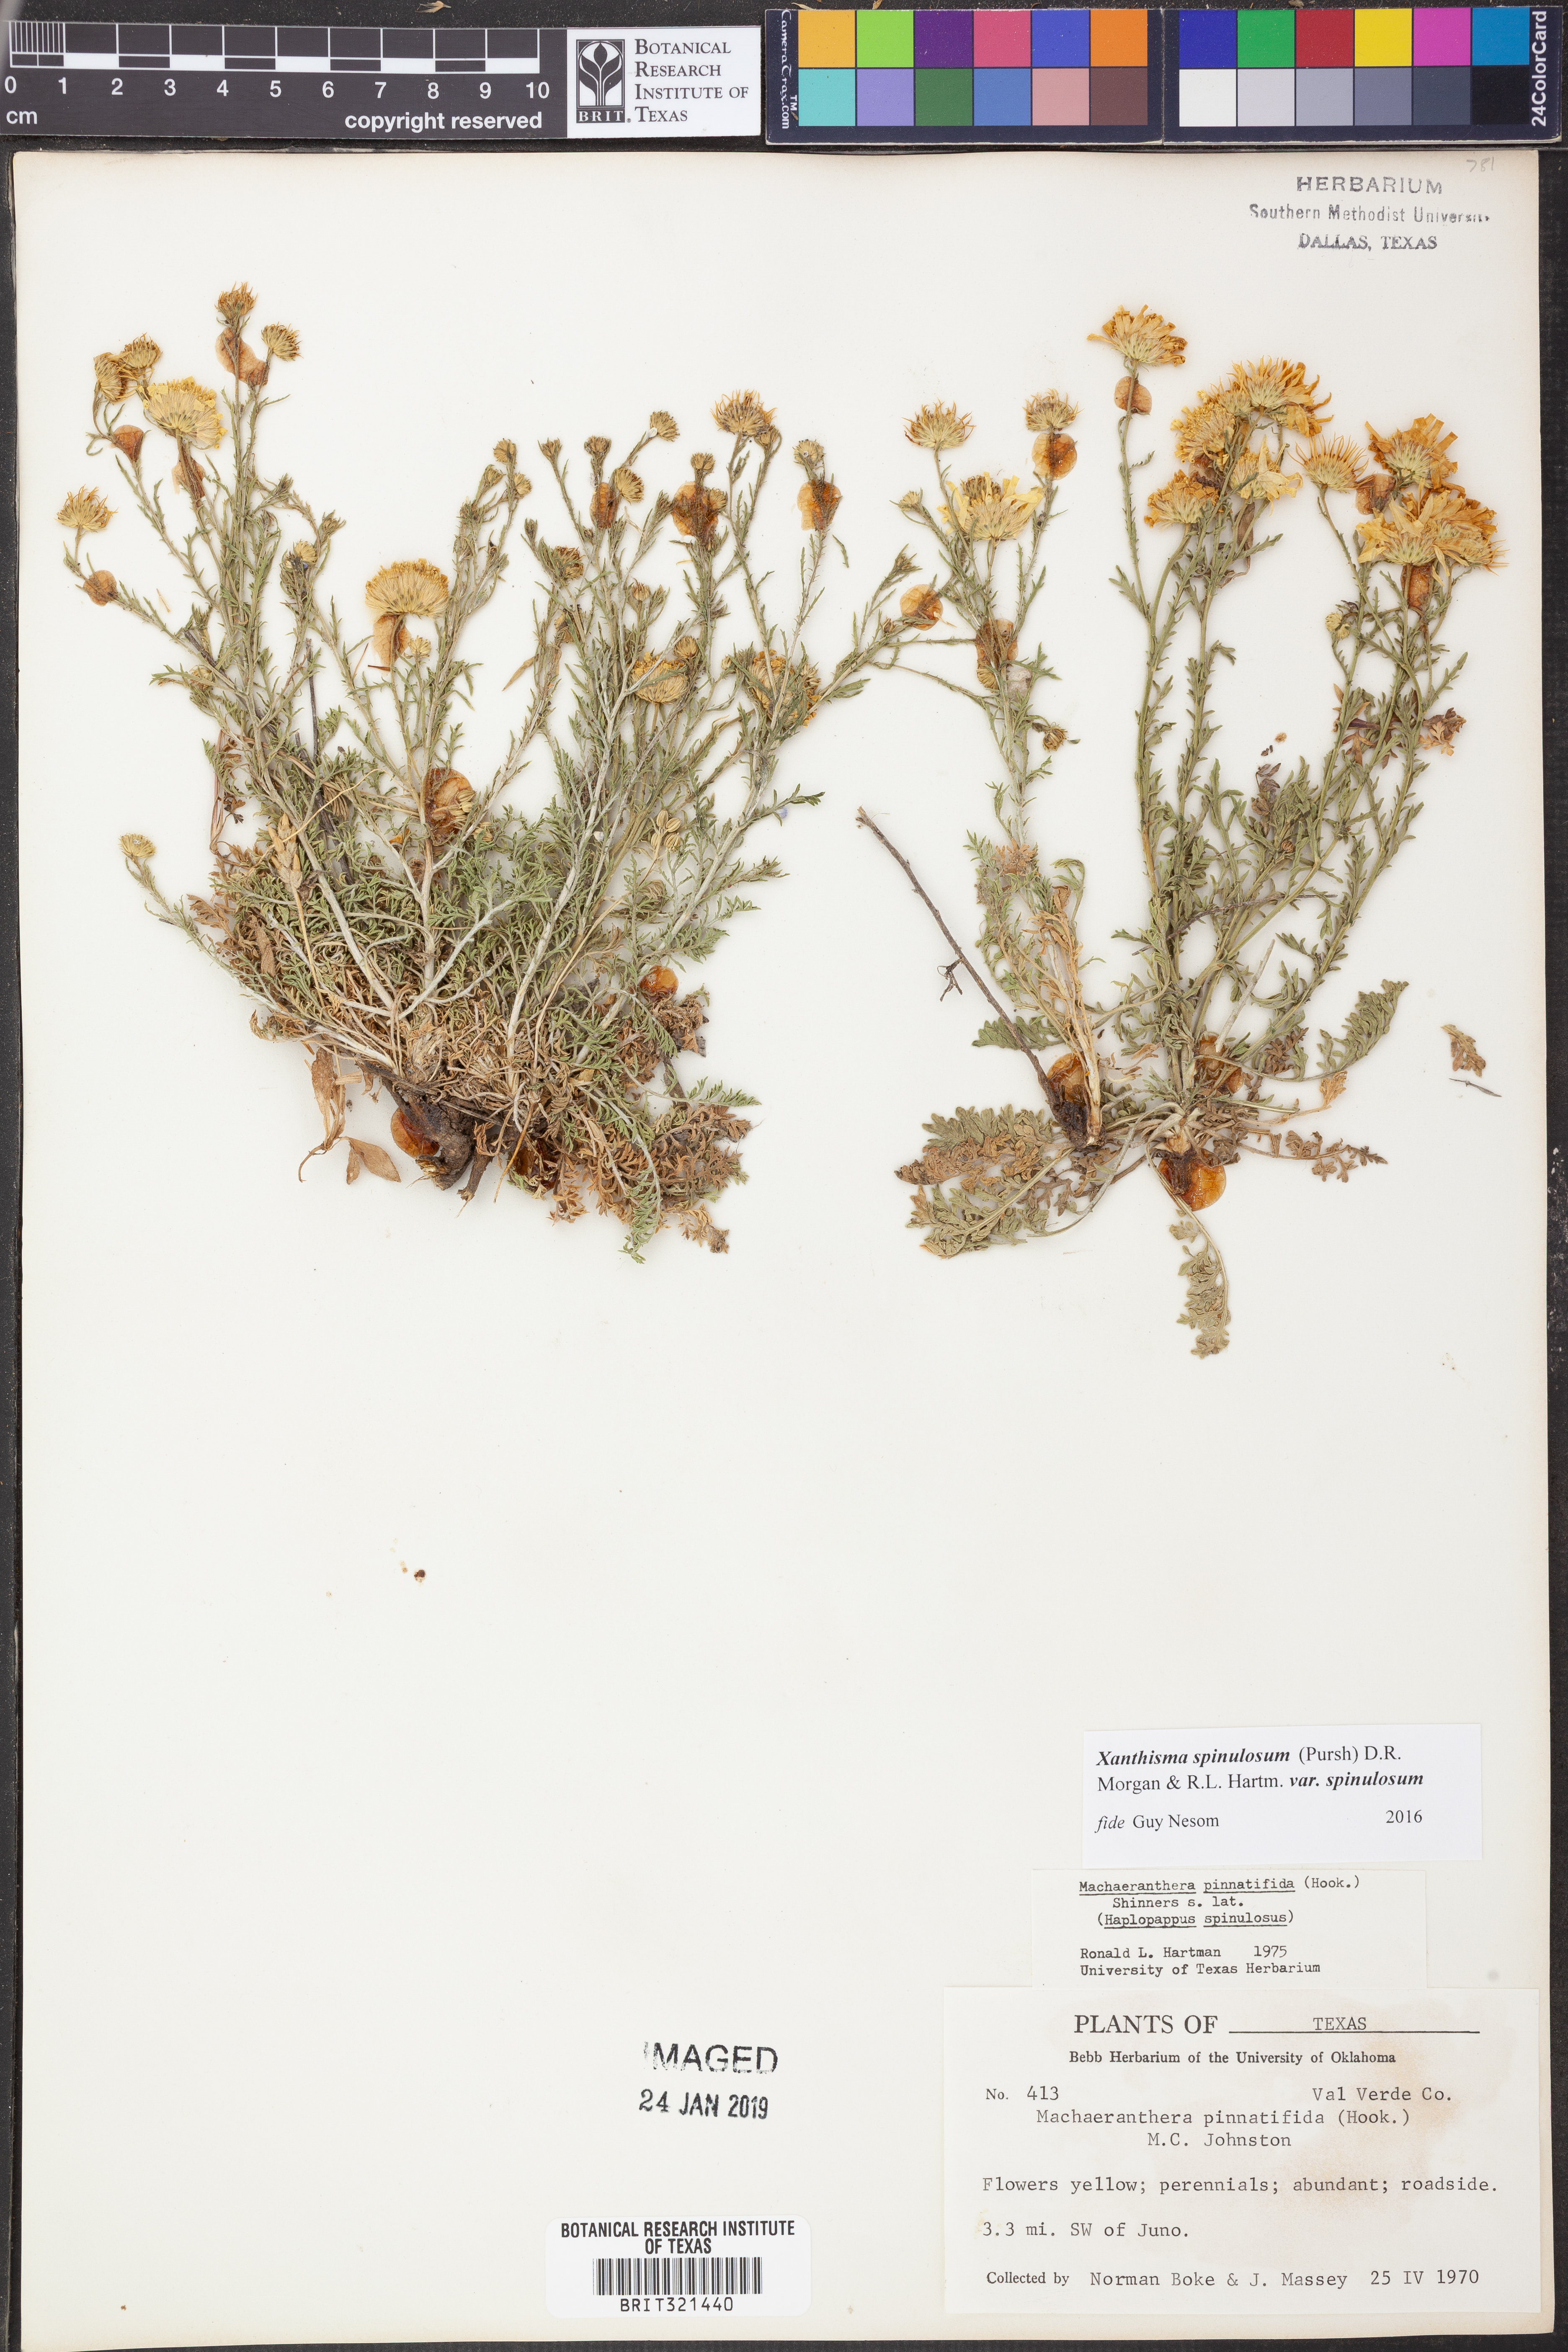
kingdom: Plantae
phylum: Tracheophyta
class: Magnoliopsida
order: Asterales
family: Asteraceae
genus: Xanthisma
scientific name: Xanthisma spinulosum
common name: Spiny goldenweed
